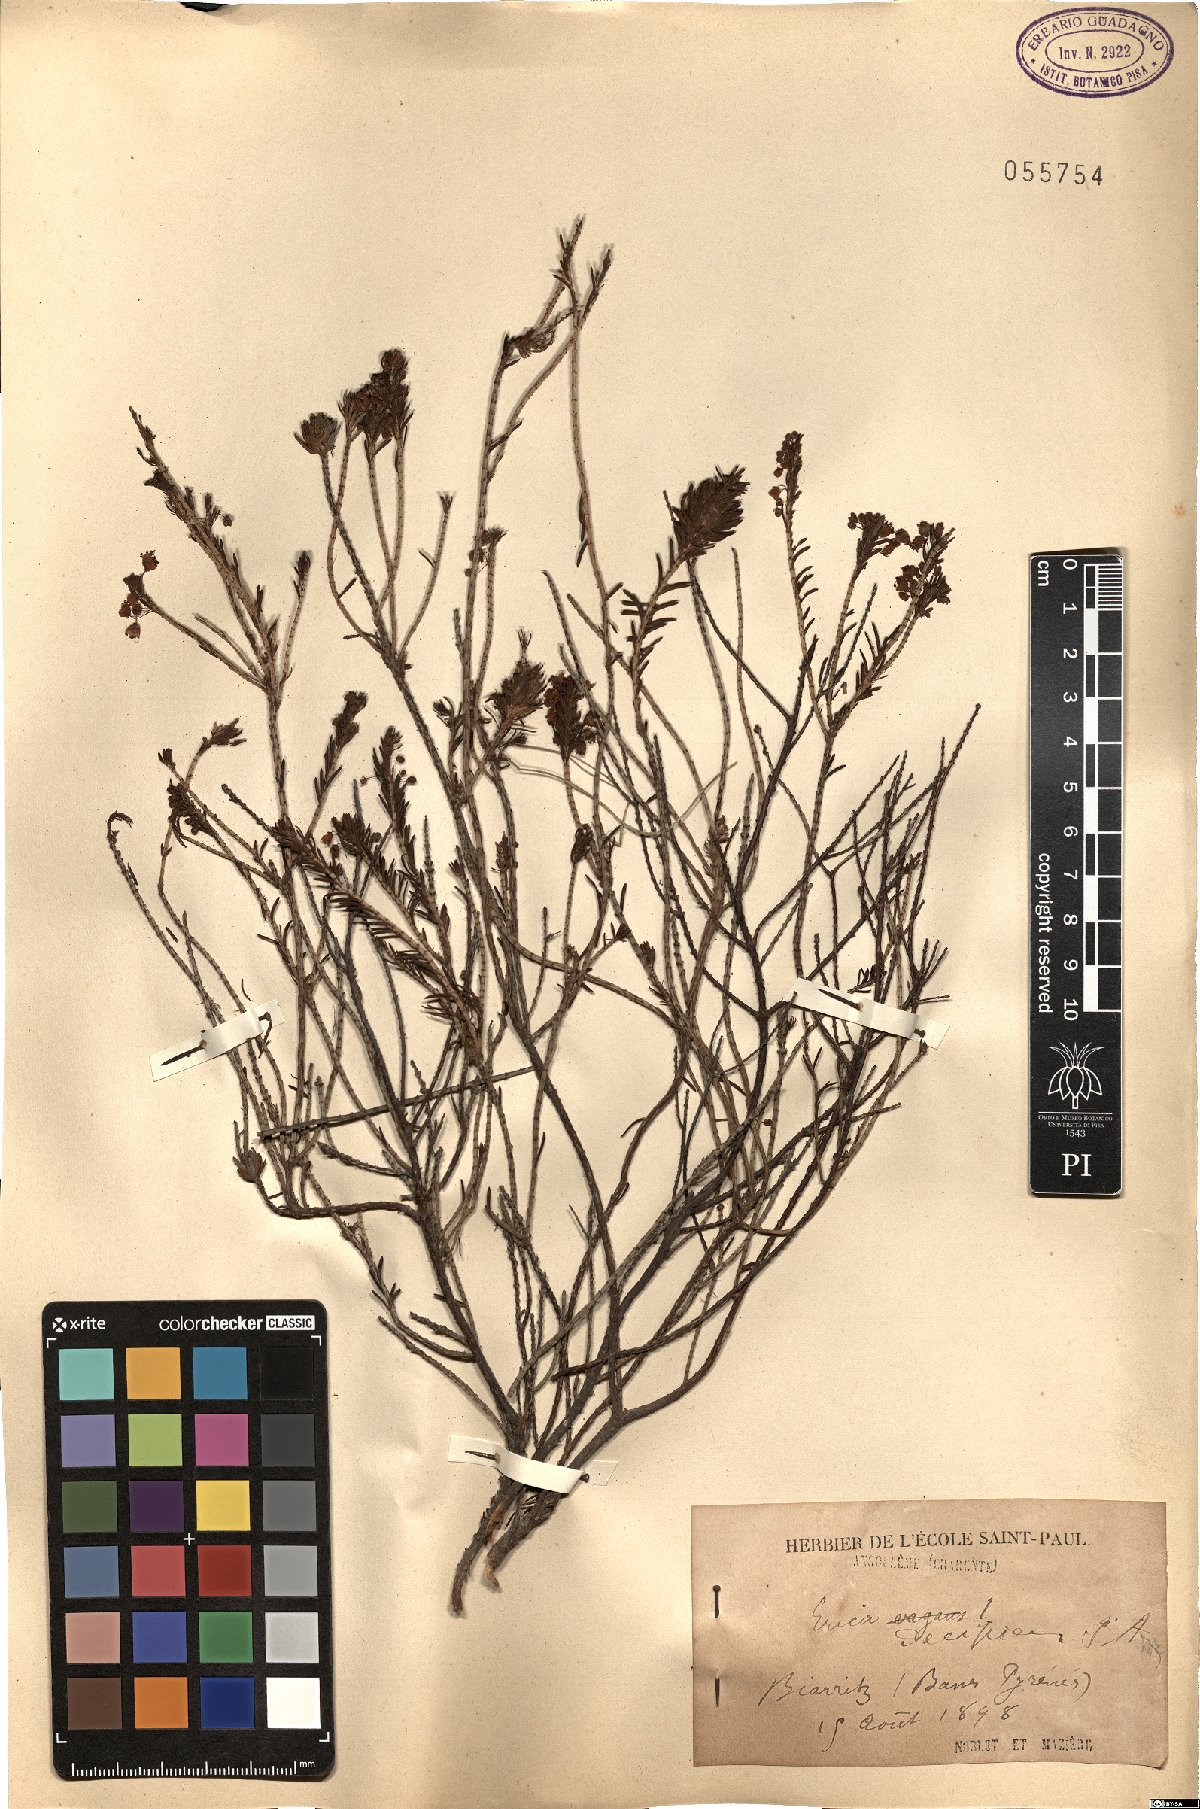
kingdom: Plantae
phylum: Tracheophyta
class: Magnoliopsida
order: Ericales
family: Ericaceae
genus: Erica
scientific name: Erica trivialis
